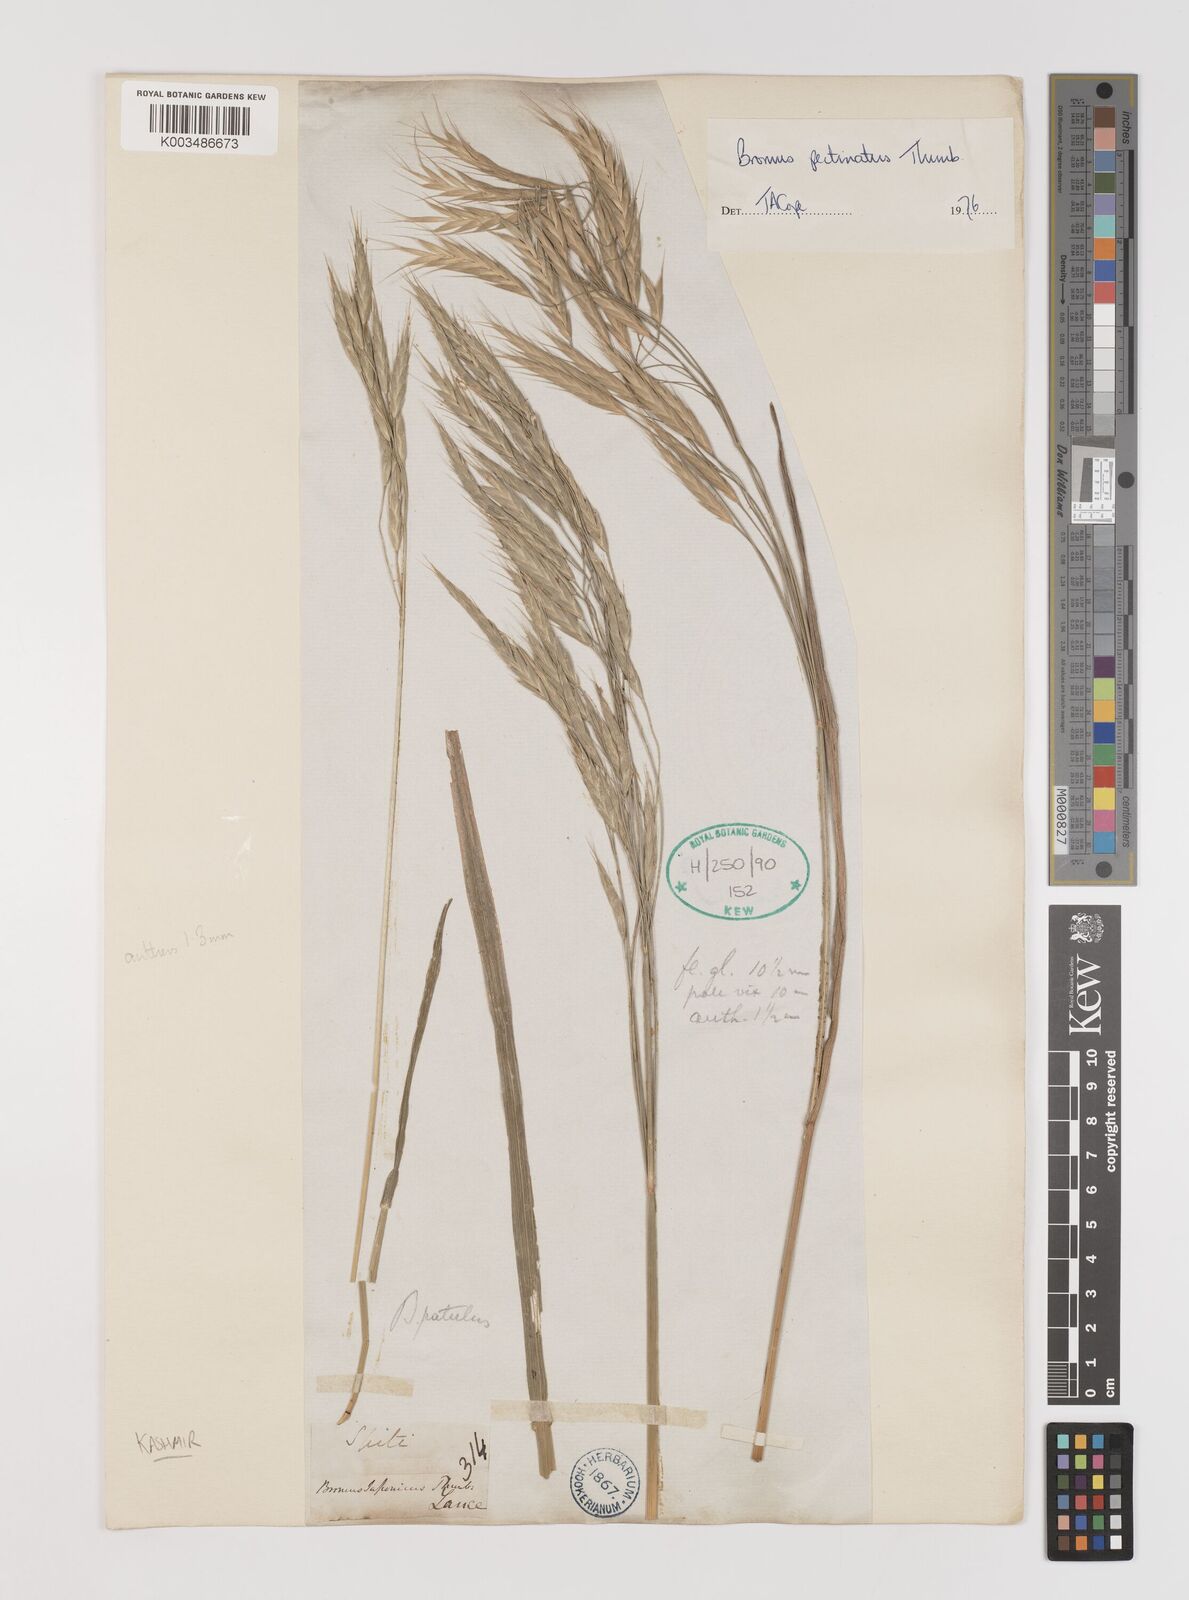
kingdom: Plantae
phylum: Tracheophyta
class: Liliopsida
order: Poales
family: Poaceae
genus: Bromus
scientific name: Bromus pectinatus
